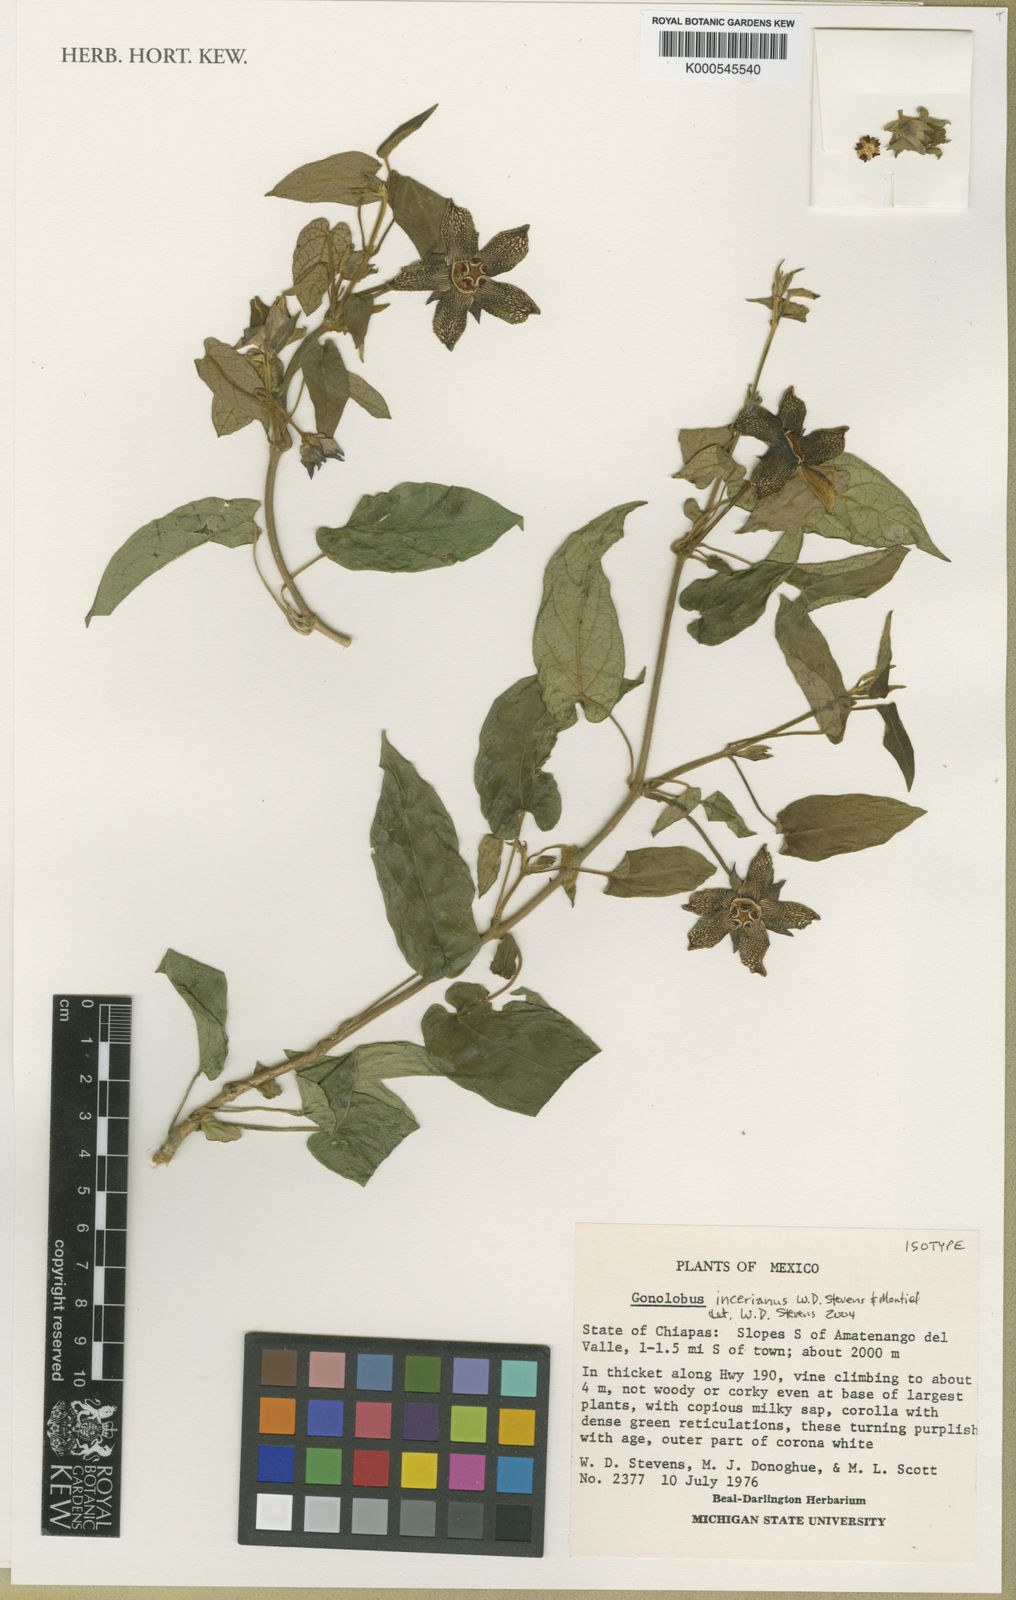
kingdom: Plantae
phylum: Tracheophyta
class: Magnoliopsida
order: Gentianales
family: Apocynaceae
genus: Gonolobus
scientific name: Gonolobus incerianus
